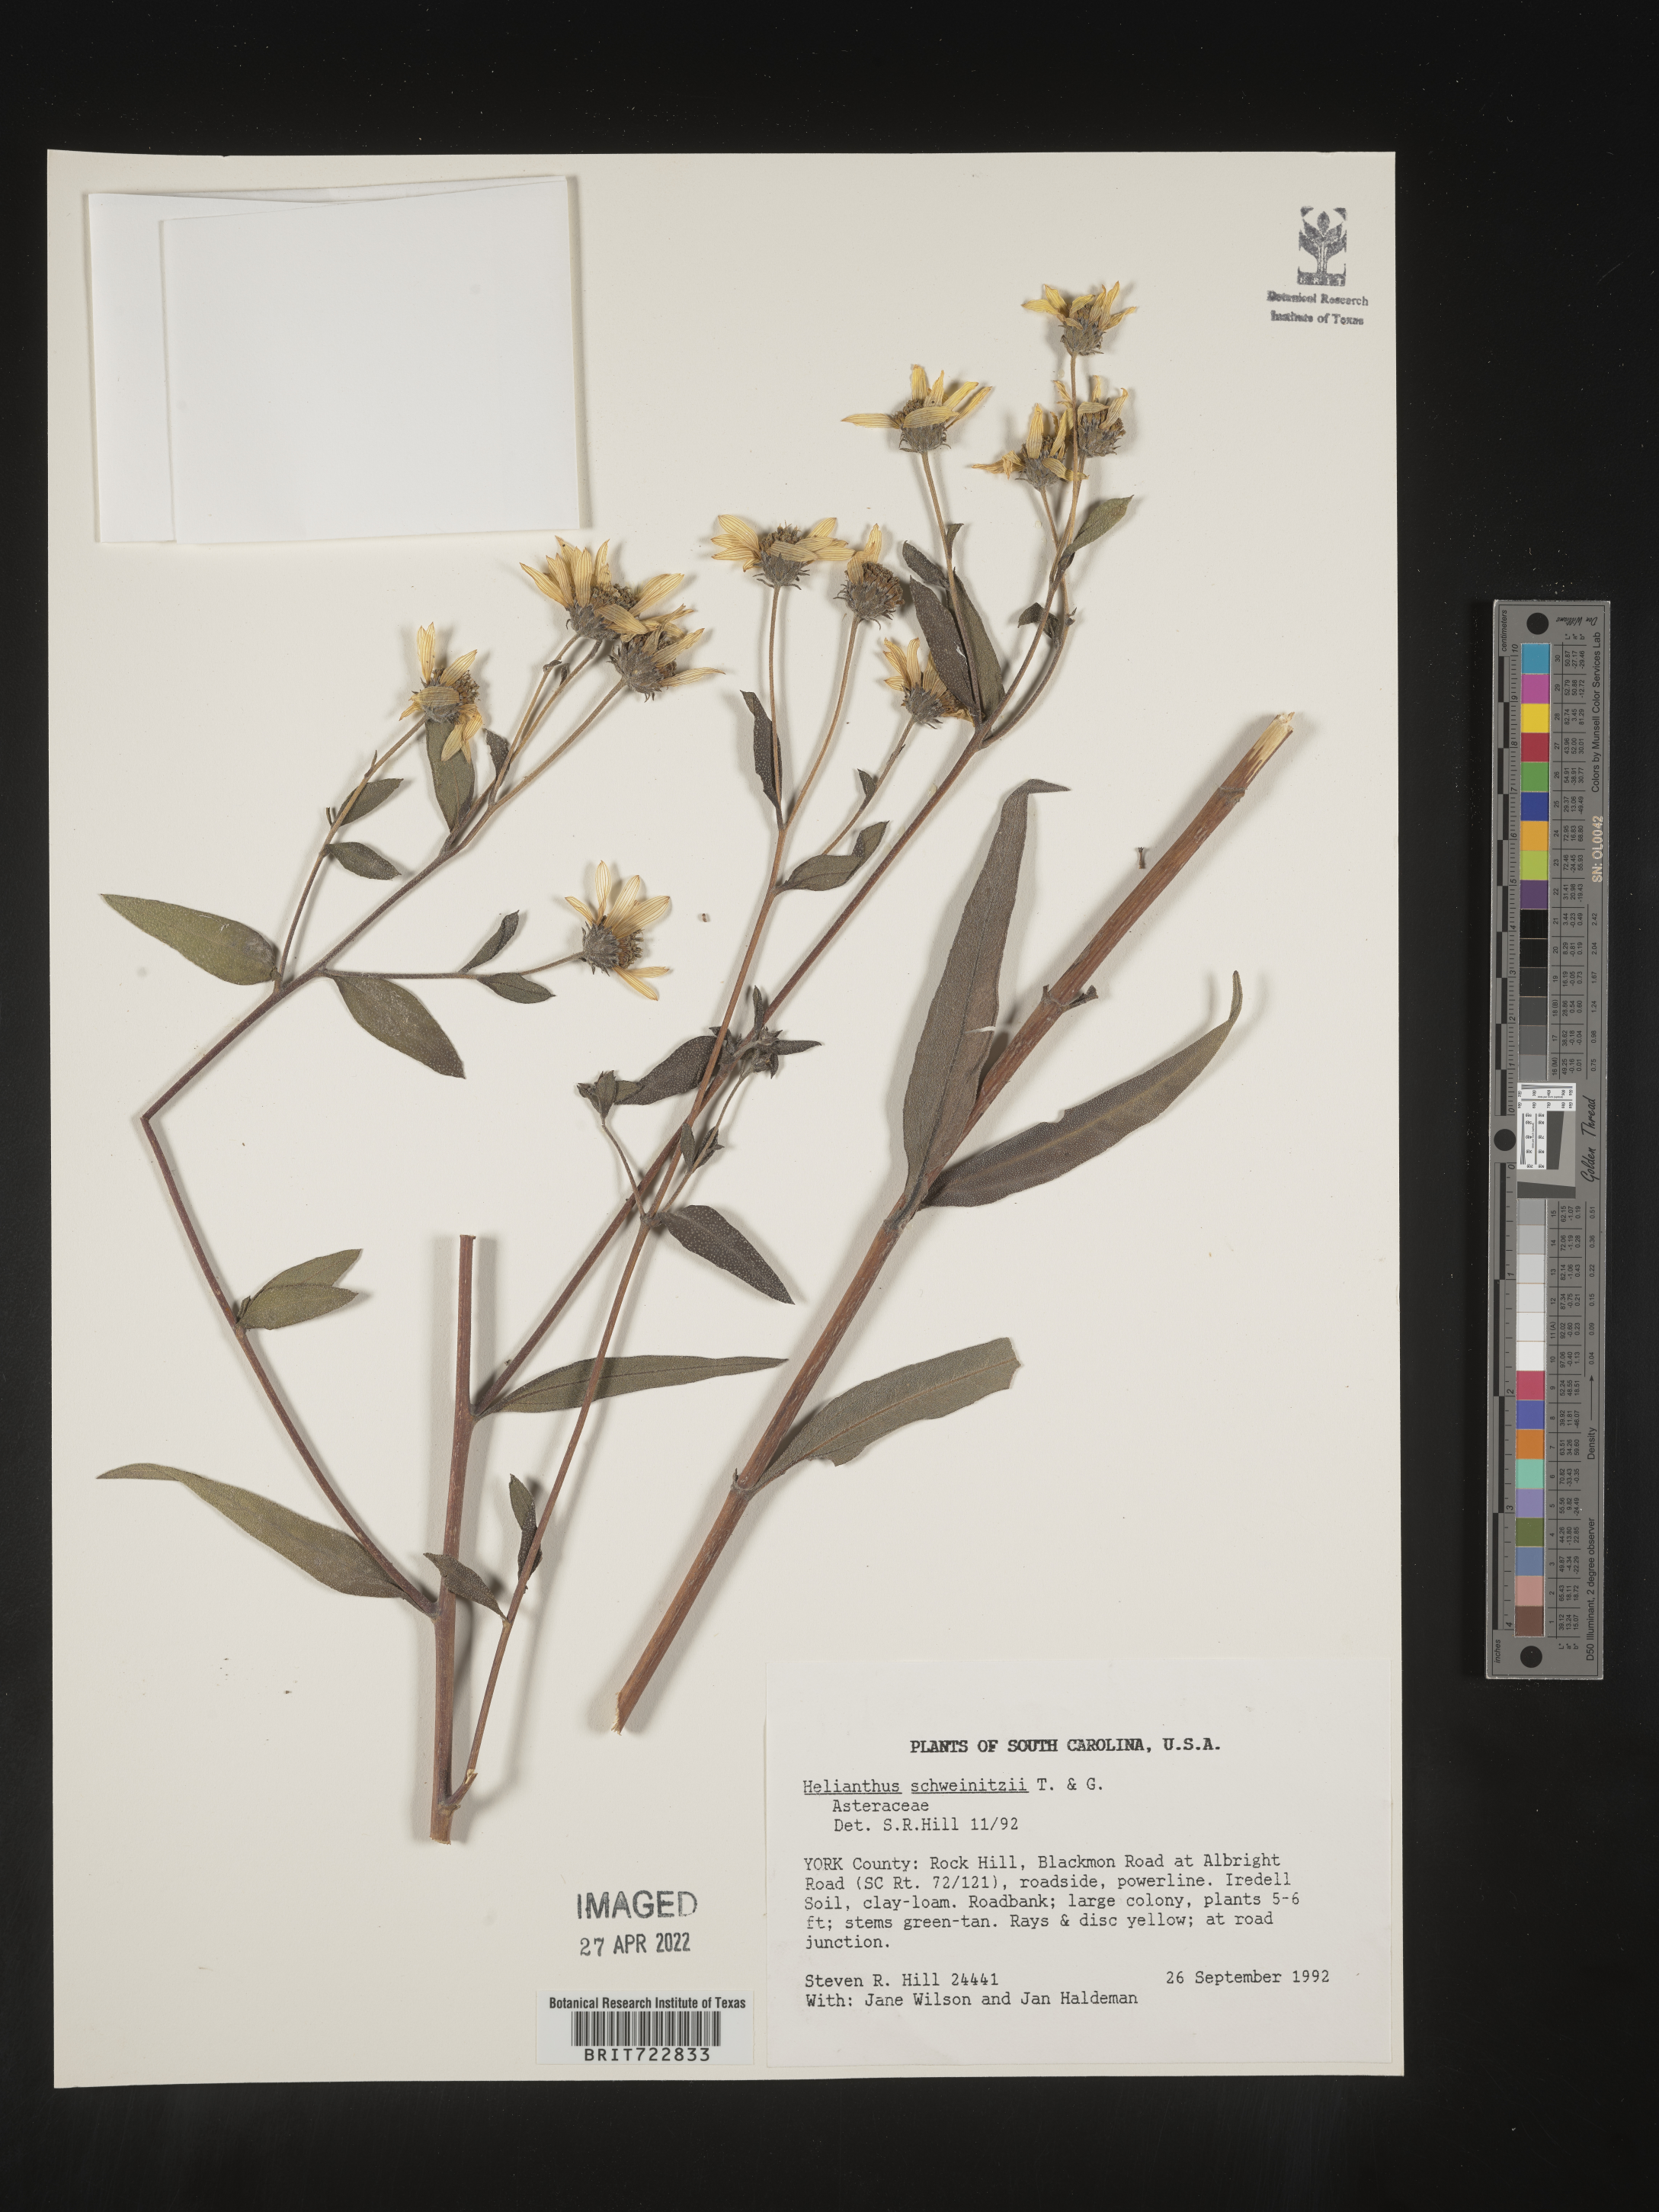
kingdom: Plantae
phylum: Tracheophyta
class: Magnoliopsida
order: Asterales
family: Asteraceae
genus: Helianthus
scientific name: Helianthus salicifolius
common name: Willowleaf sunflower
